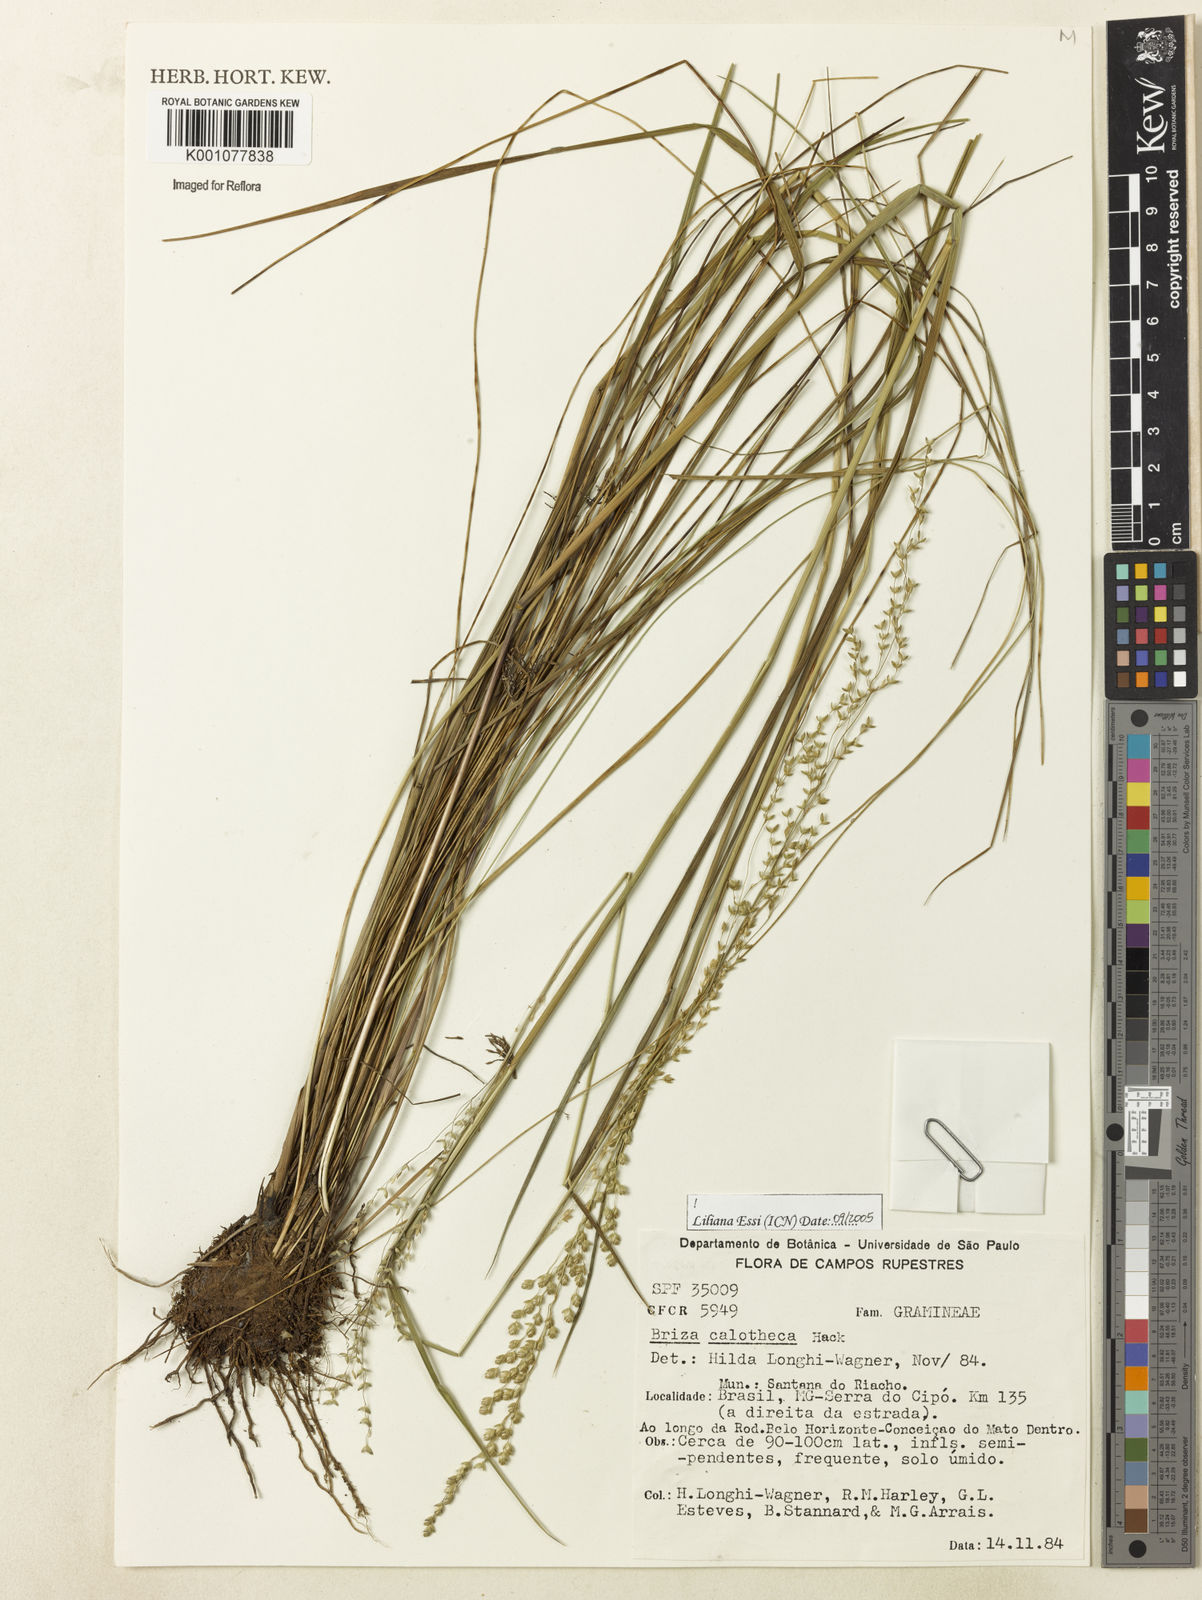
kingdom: Plantae
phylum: Tracheophyta
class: Liliopsida
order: Poales
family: Poaceae
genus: Poidium
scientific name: Poidium calotheca
